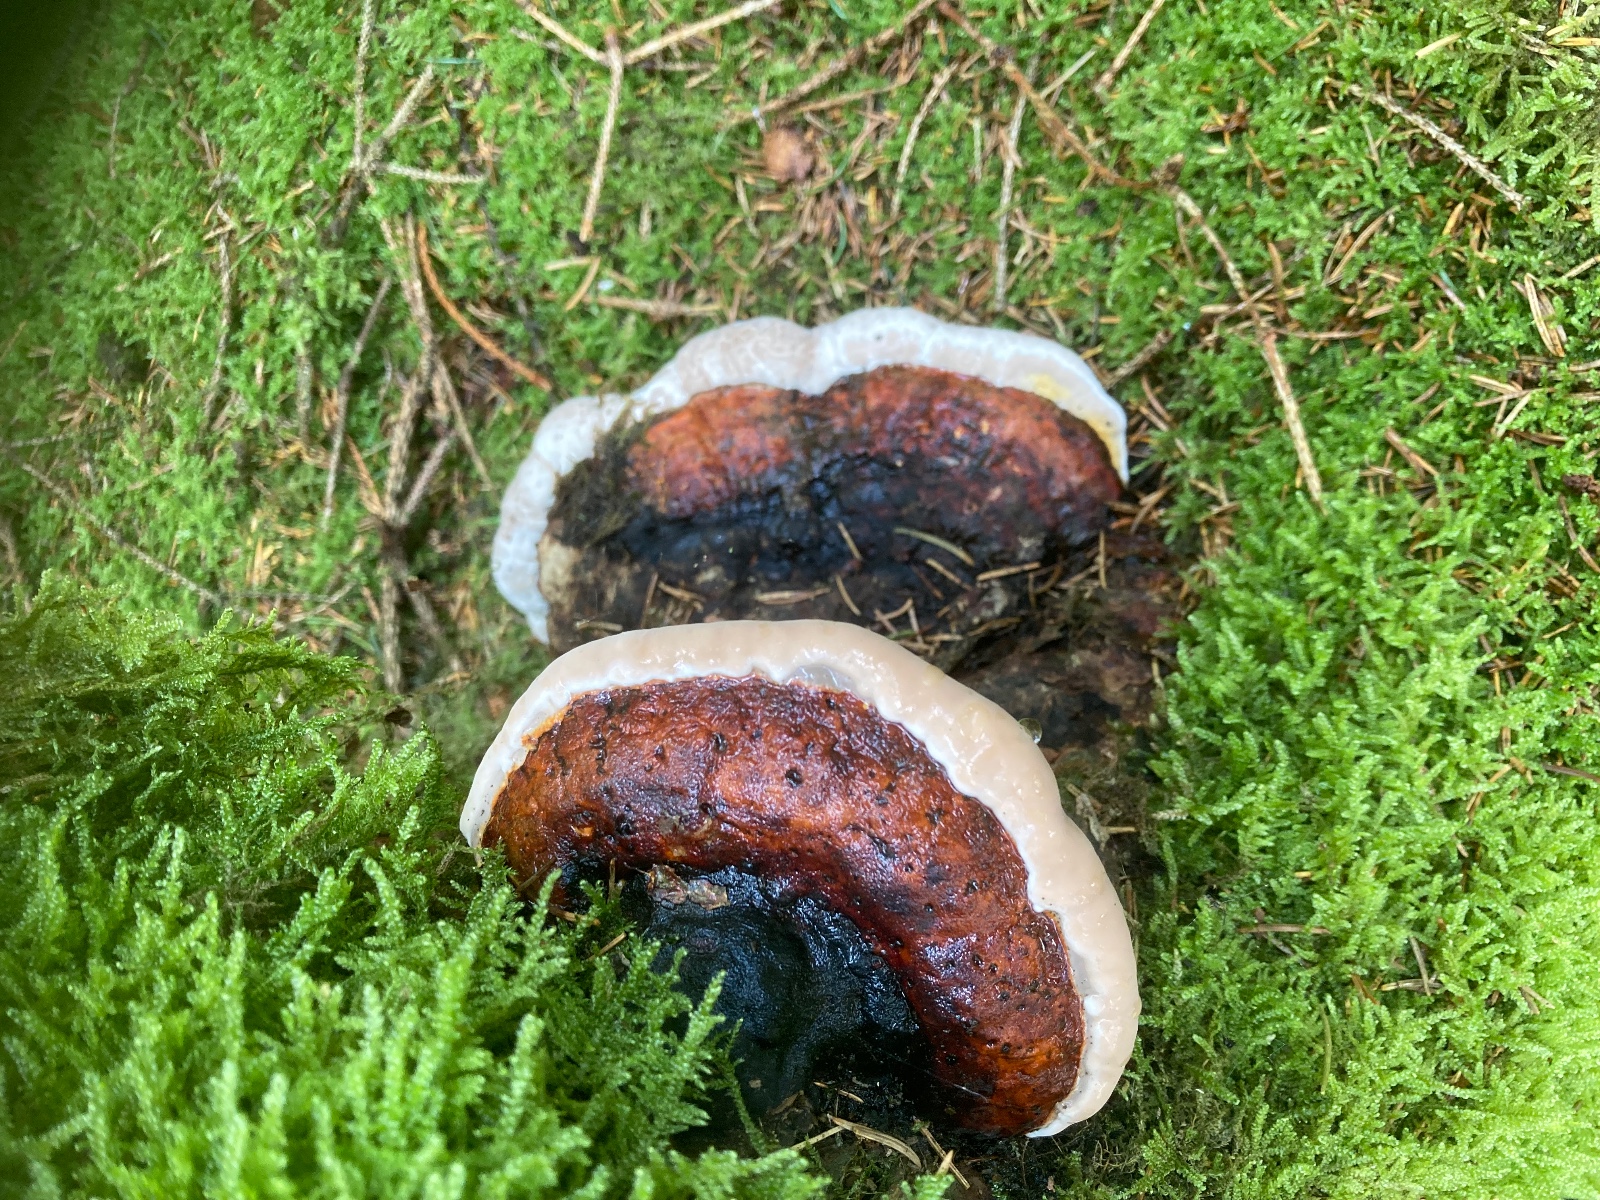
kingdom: Fungi
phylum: Basidiomycota
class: Agaricomycetes
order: Polyporales
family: Fomitopsidaceae
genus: Fomitopsis
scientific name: Fomitopsis pinicola
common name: randbæltet hovporesvamp
